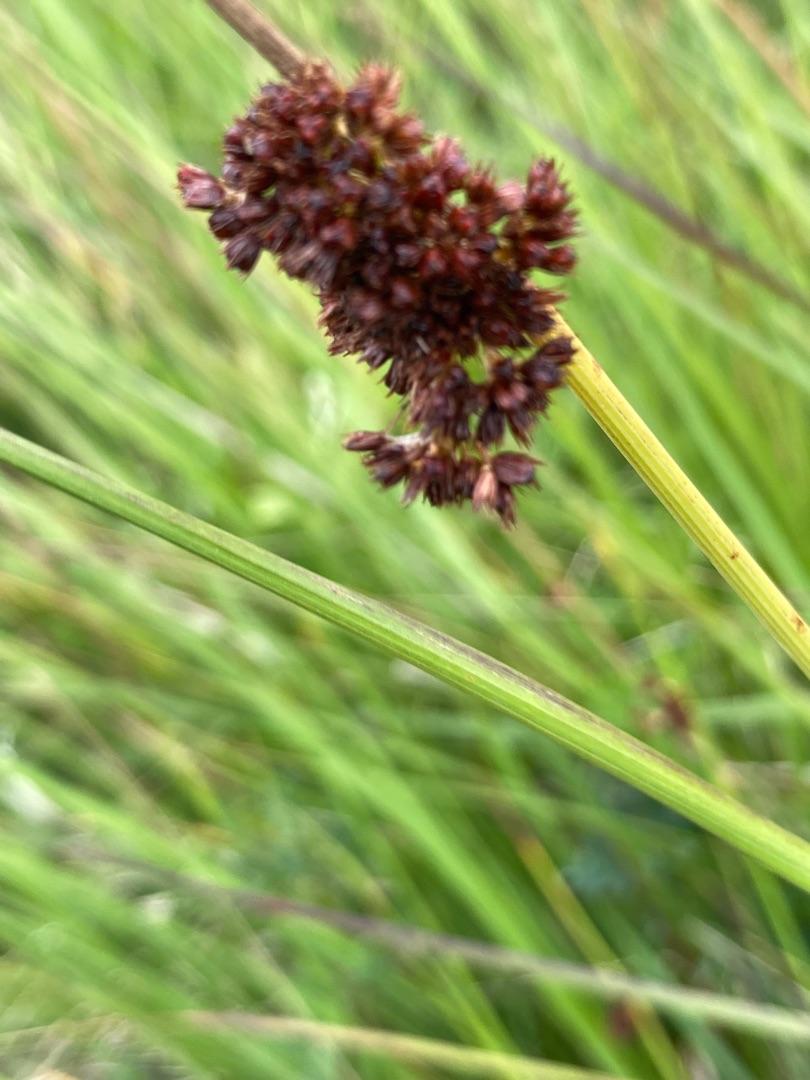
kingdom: Plantae
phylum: Tracheophyta
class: Liliopsida
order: Poales
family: Juncaceae
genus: Juncus
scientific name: Juncus conglomeratus
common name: Knop-siv
